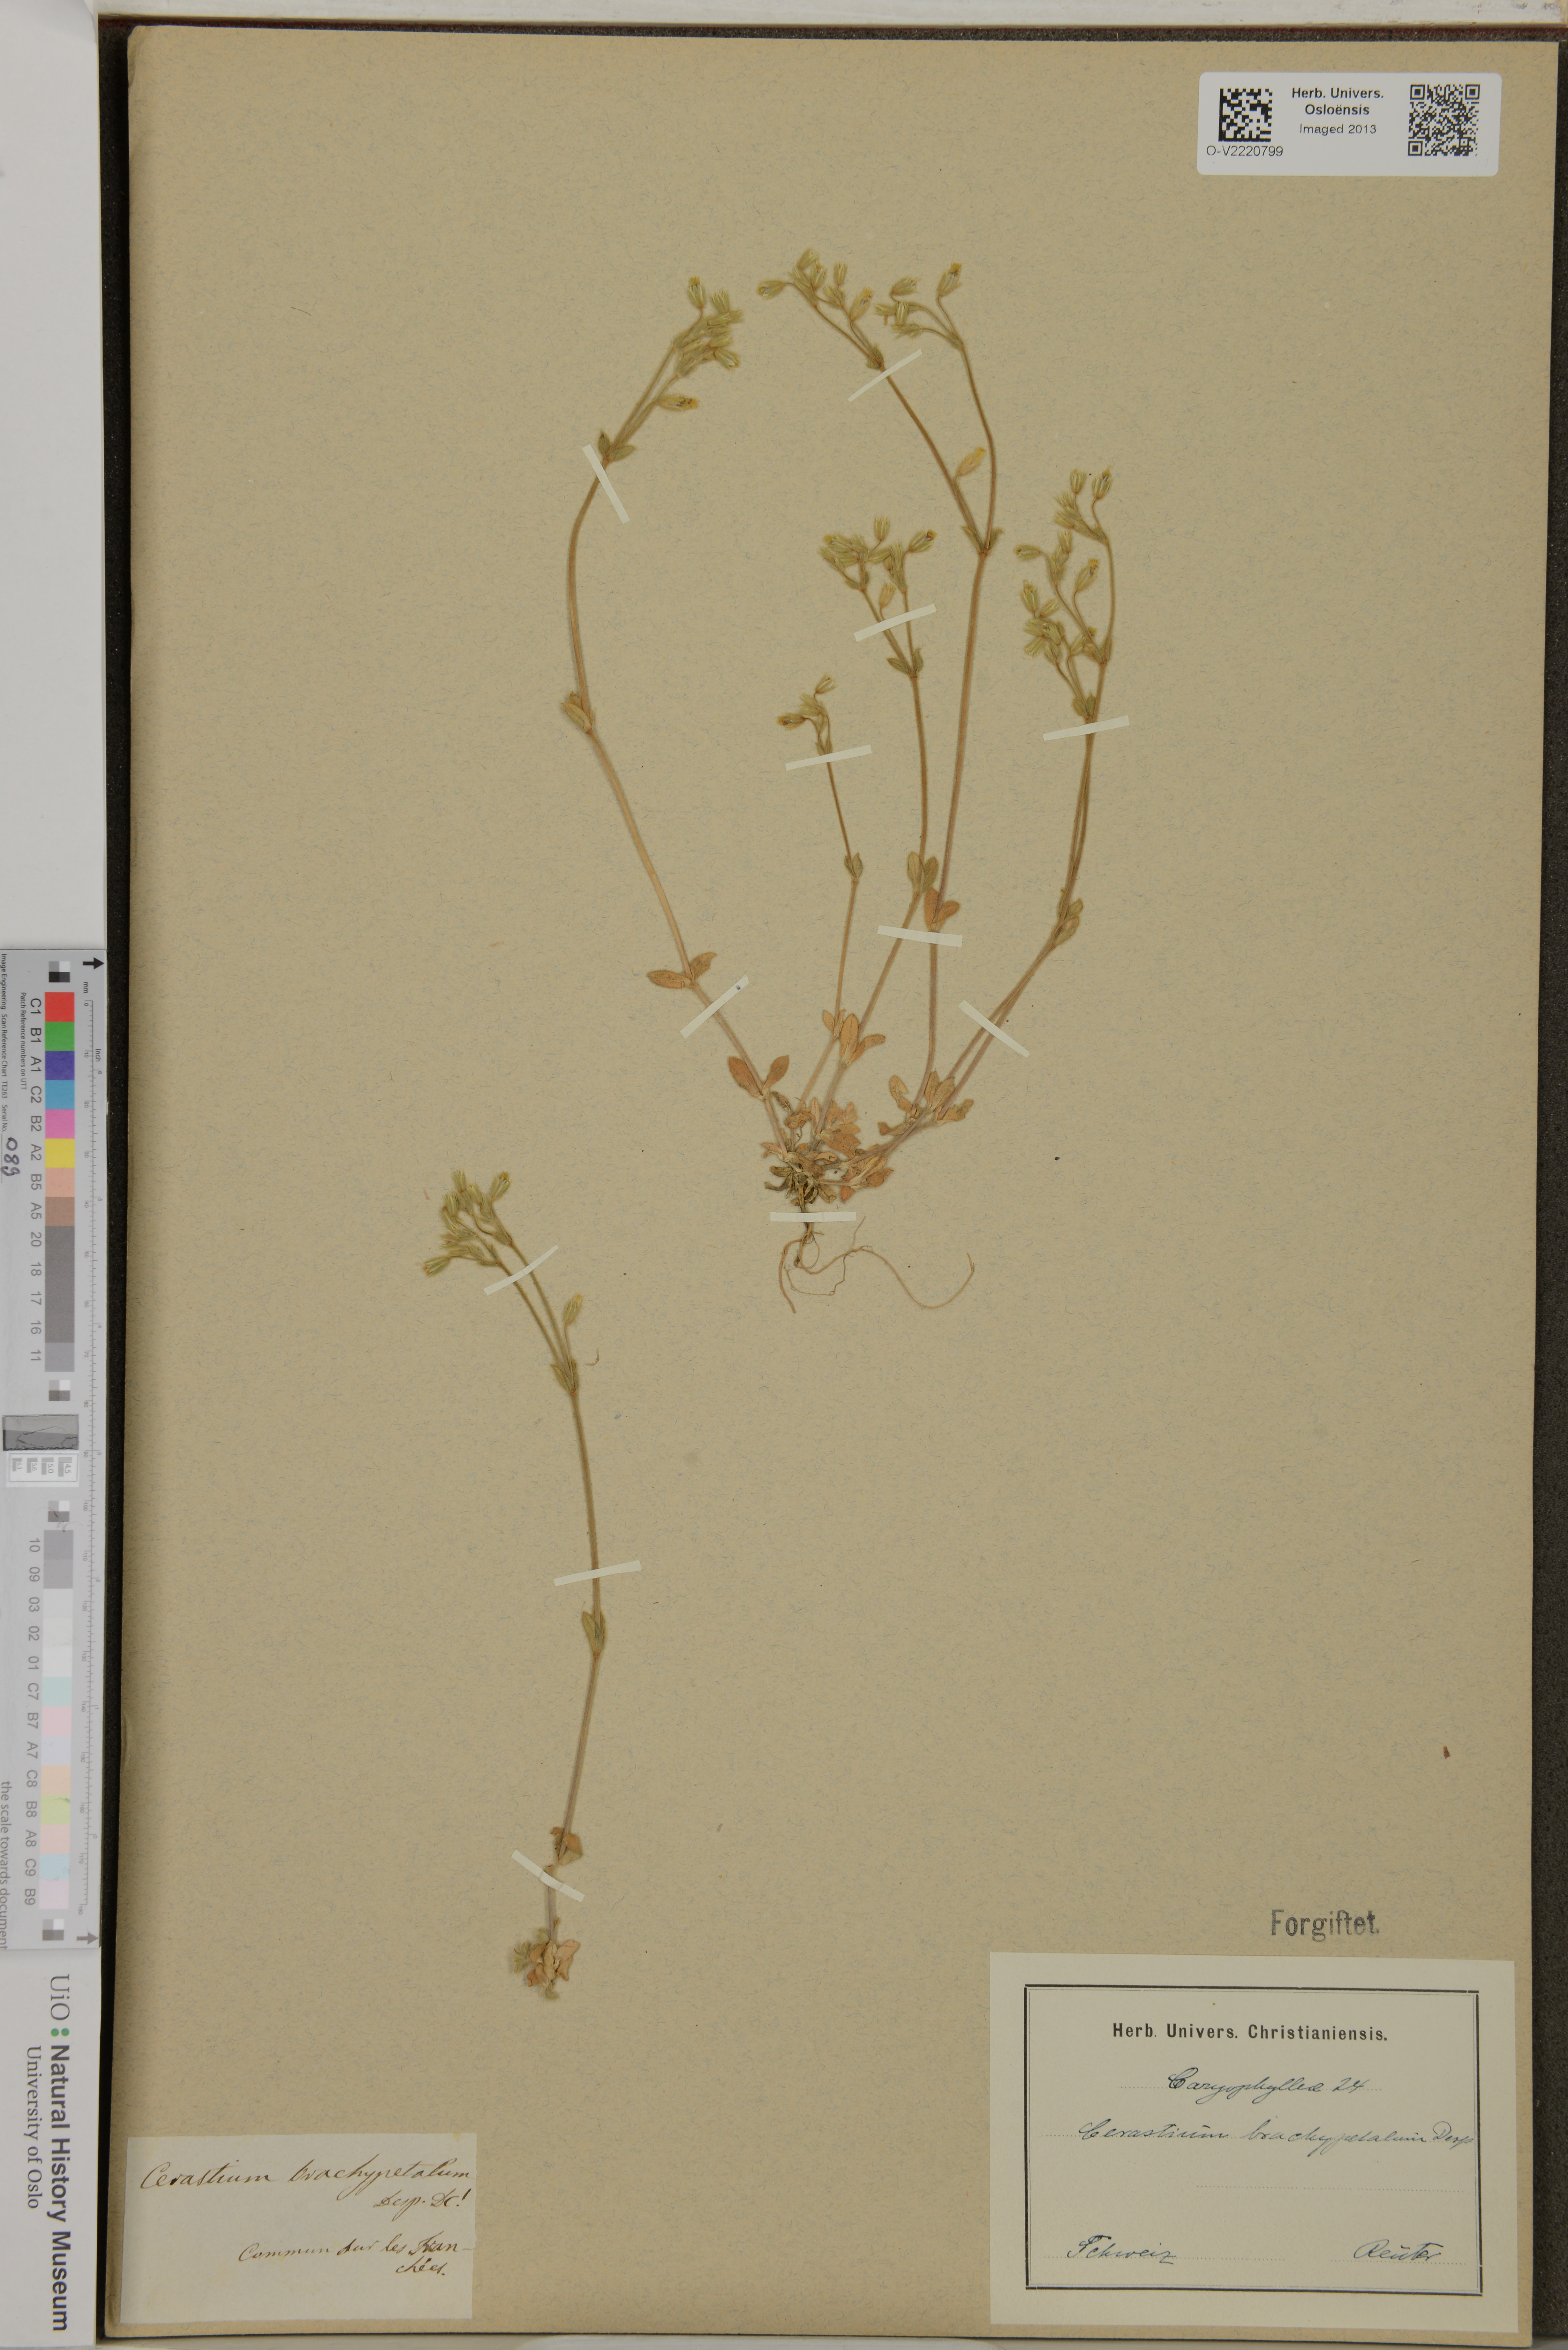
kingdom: Plantae
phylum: Tracheophyta
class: Magnoliopsida
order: Caryophyllales
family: Caryophyllaceae
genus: Cerastium
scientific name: Cerastium brachypetalum
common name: Grey mouse-ear
